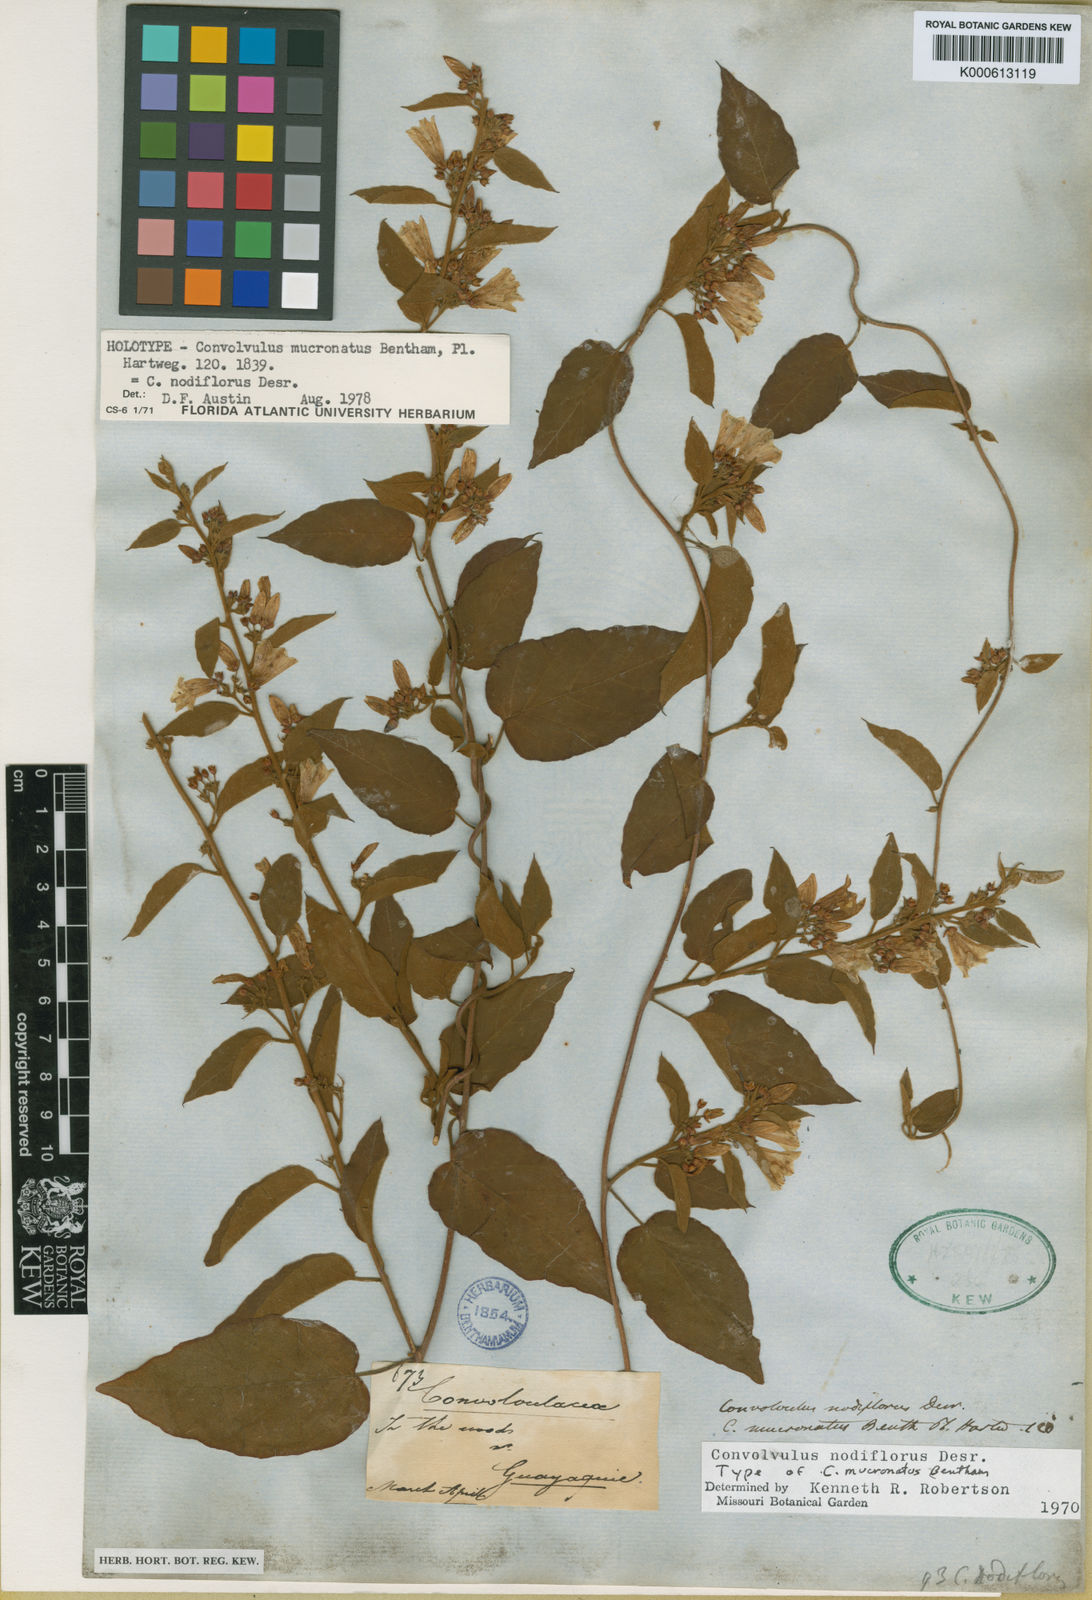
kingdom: Plantae
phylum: Tracheophyta
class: Magnoliopsida
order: Solanales
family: Convolvulaceae
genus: Jacquemontia
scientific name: Jacquemontia nodiflora
